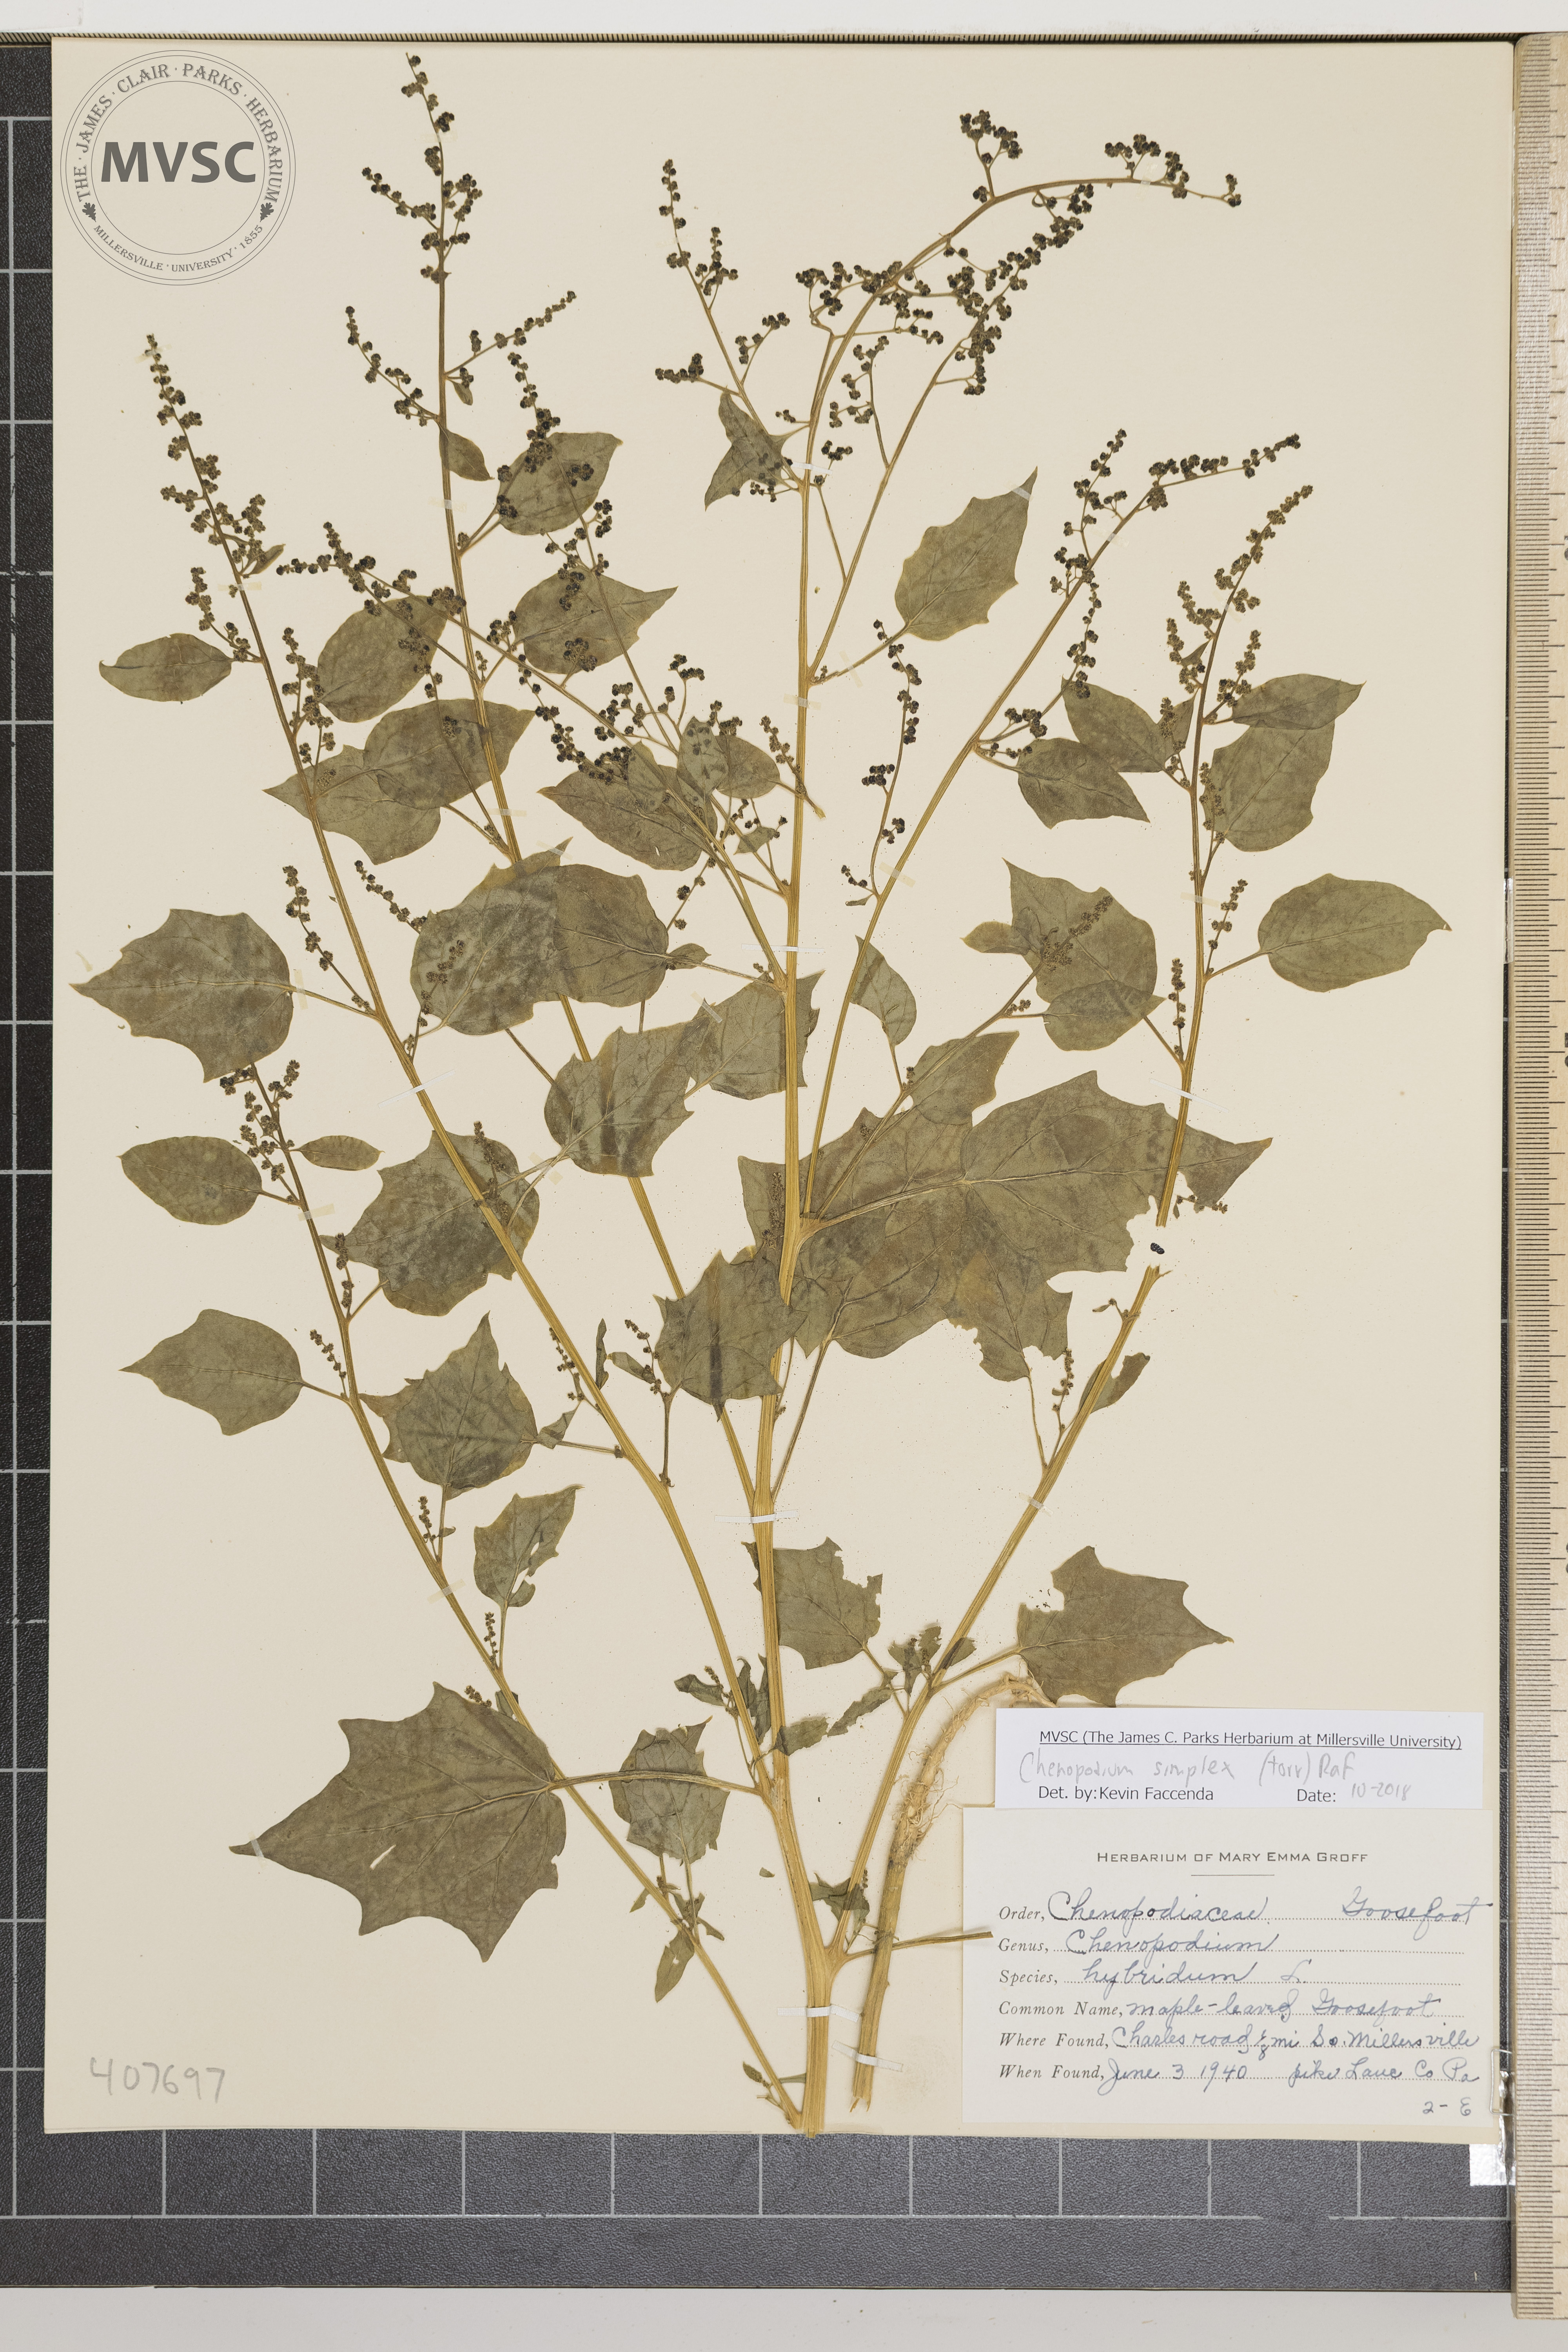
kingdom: Plantae
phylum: Tracheophyta
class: Magnoliopsida
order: Caryophyllales
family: Amaranthaceae
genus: Chenopodiastrum
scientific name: Chenopodiastrum simplex
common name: Maple-leaved Goosefoot
